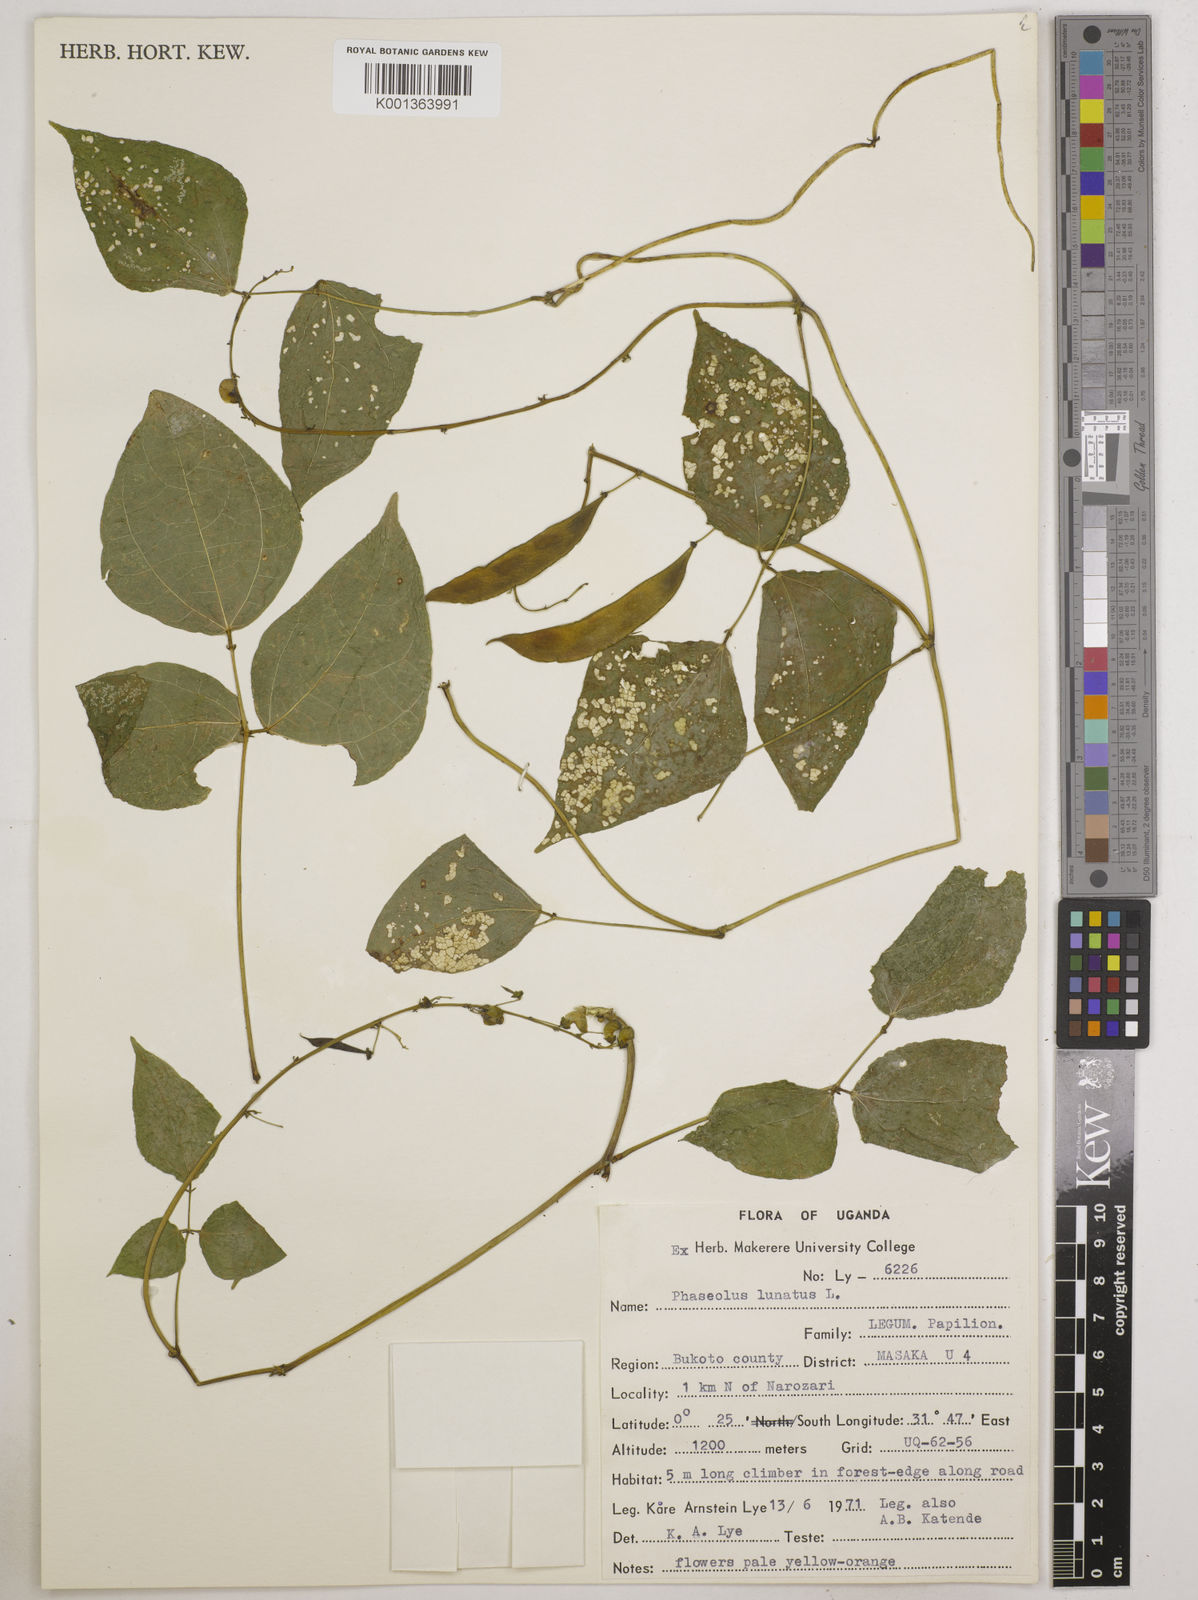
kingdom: Plantae
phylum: Tracheophyta
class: Magnoliopsida
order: Fabales
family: Fabaceae
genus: Phaseolus
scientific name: Phaseolus lunatus
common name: Sieva bean
